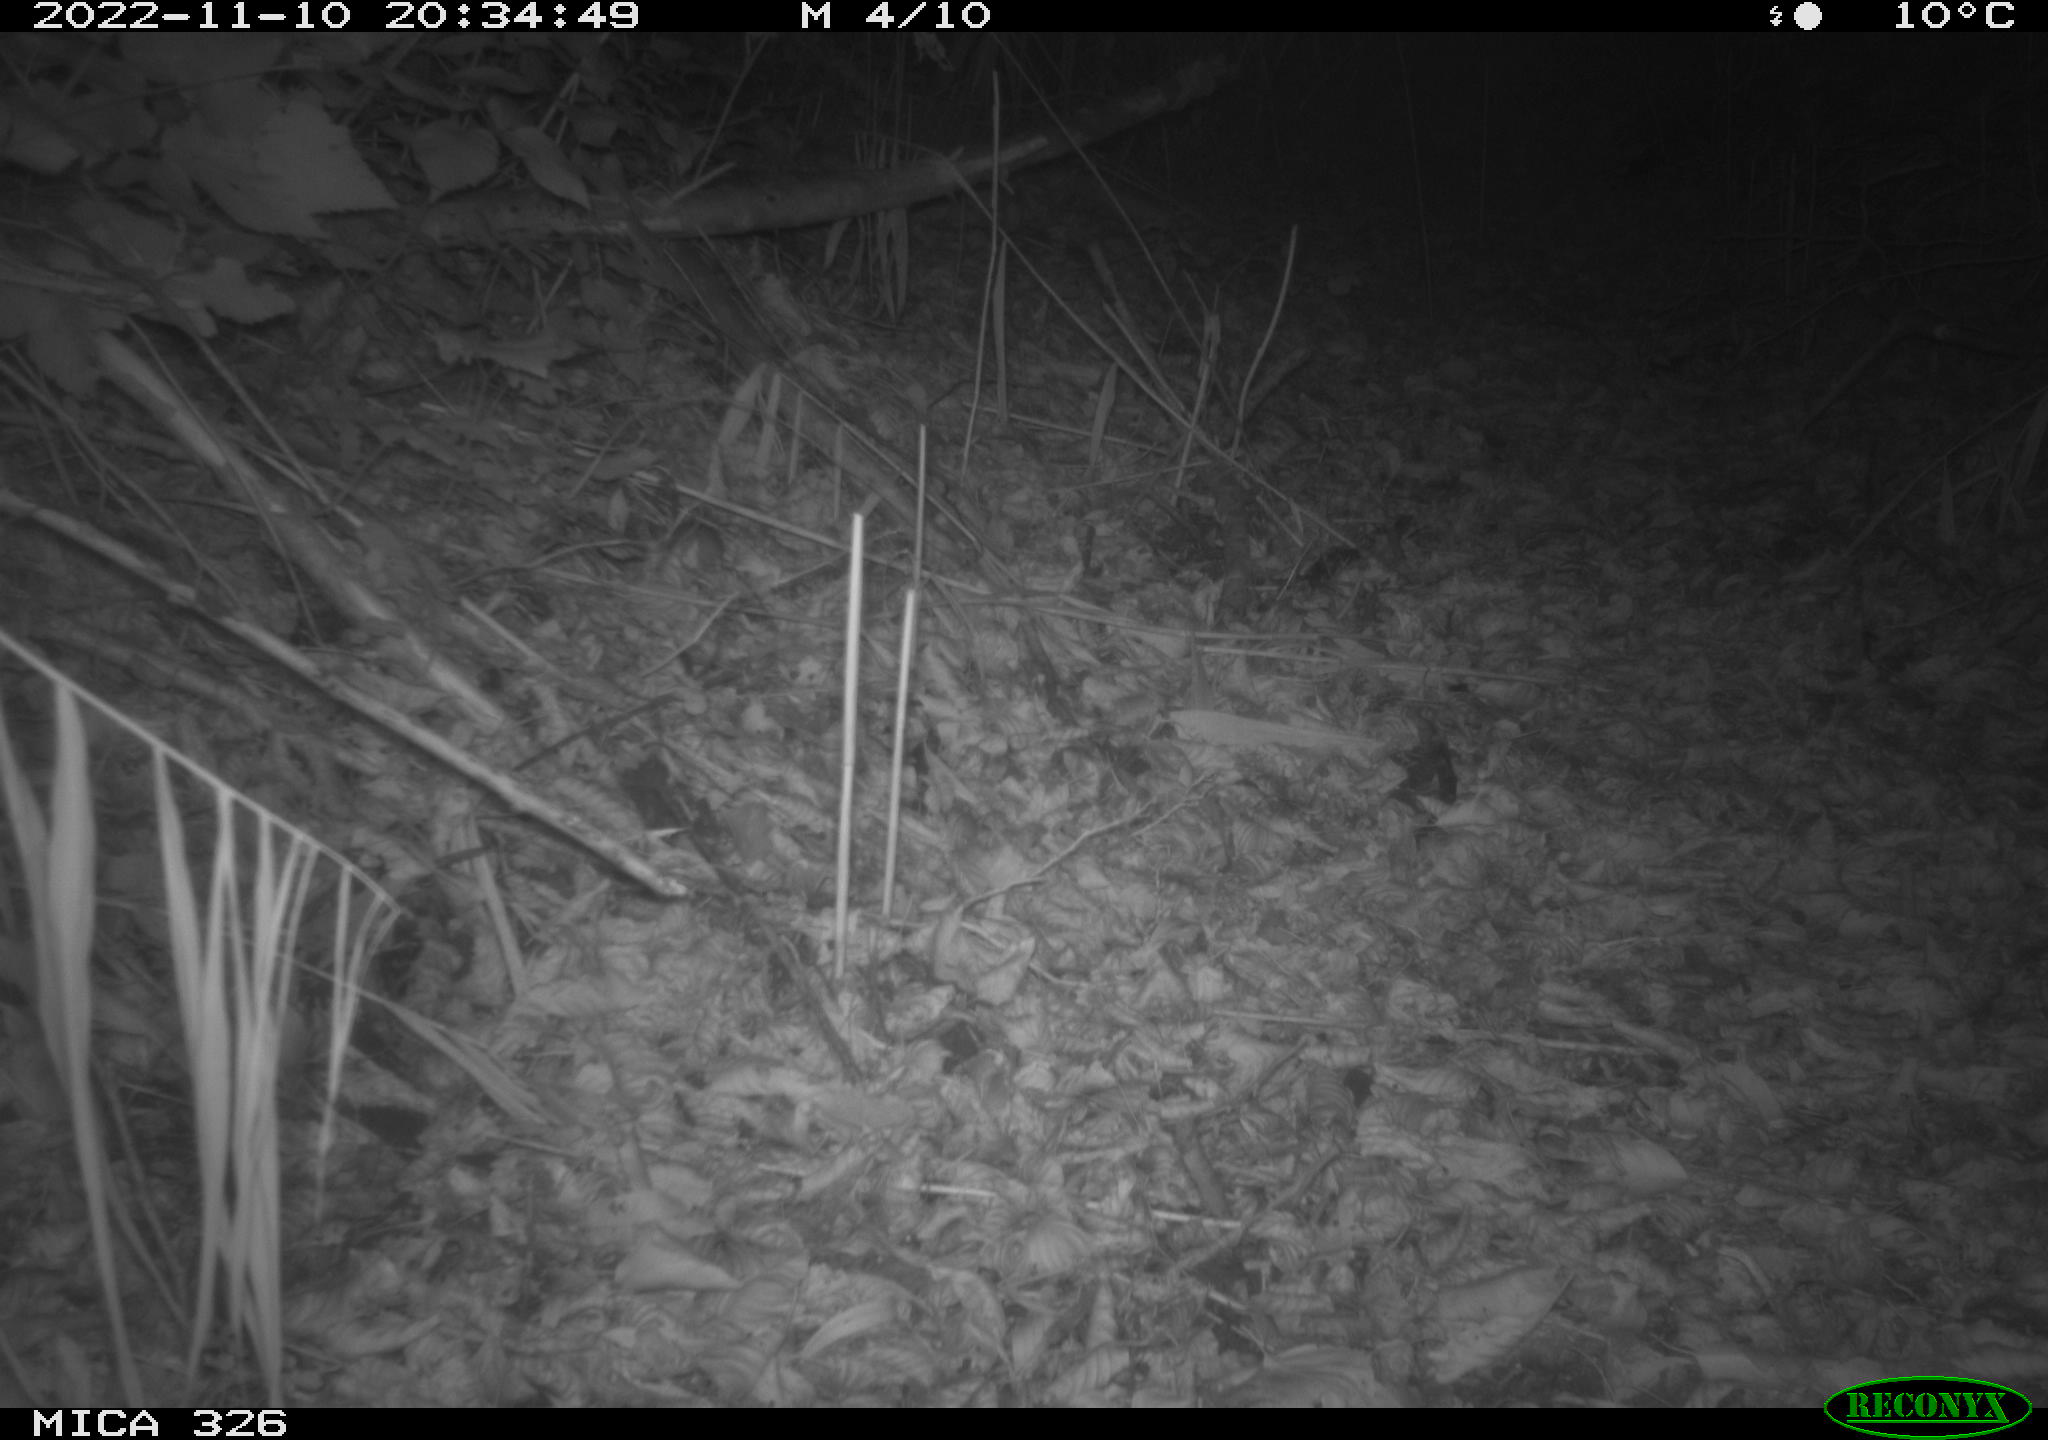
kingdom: Animalia
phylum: Chordata
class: Mammalia
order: Rodentia
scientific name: Rodentia
